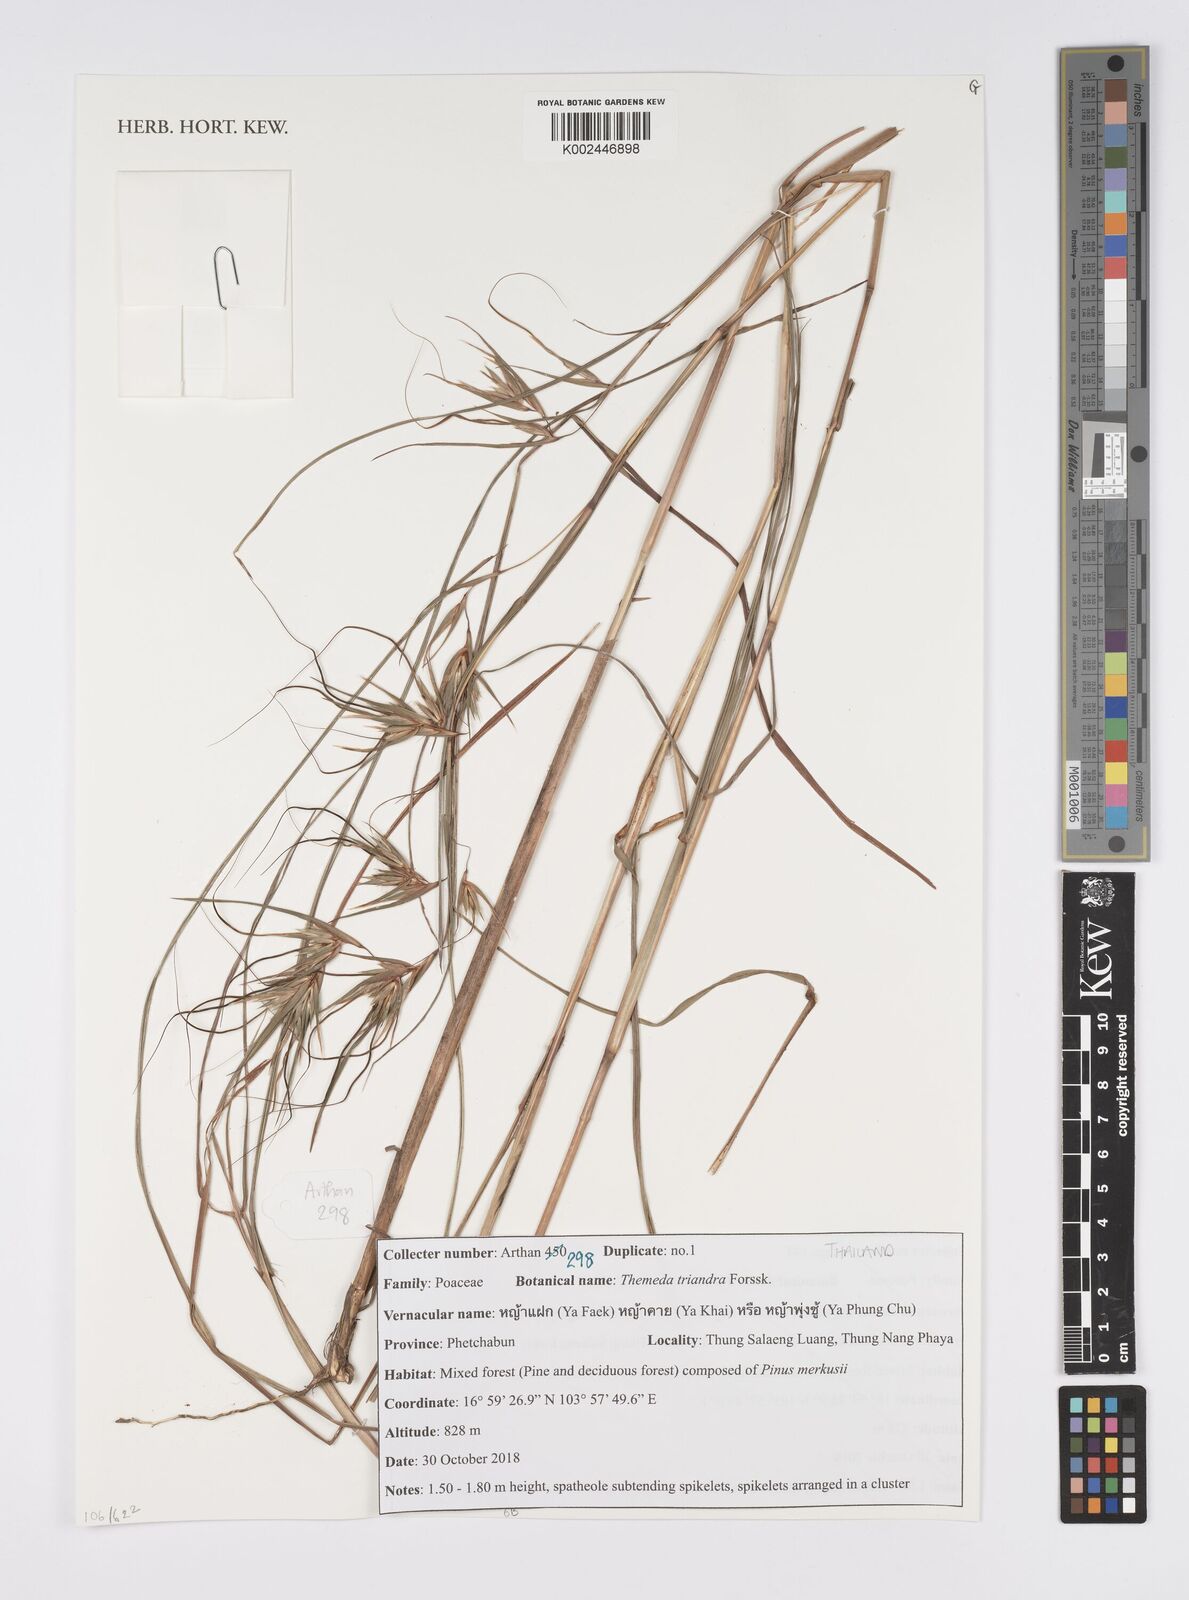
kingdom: Plantae
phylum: Tracheophyta
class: Liliopsida
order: Poales
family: Poaceae
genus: Themeda
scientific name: Themeda triandra
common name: Kangaroo grass
